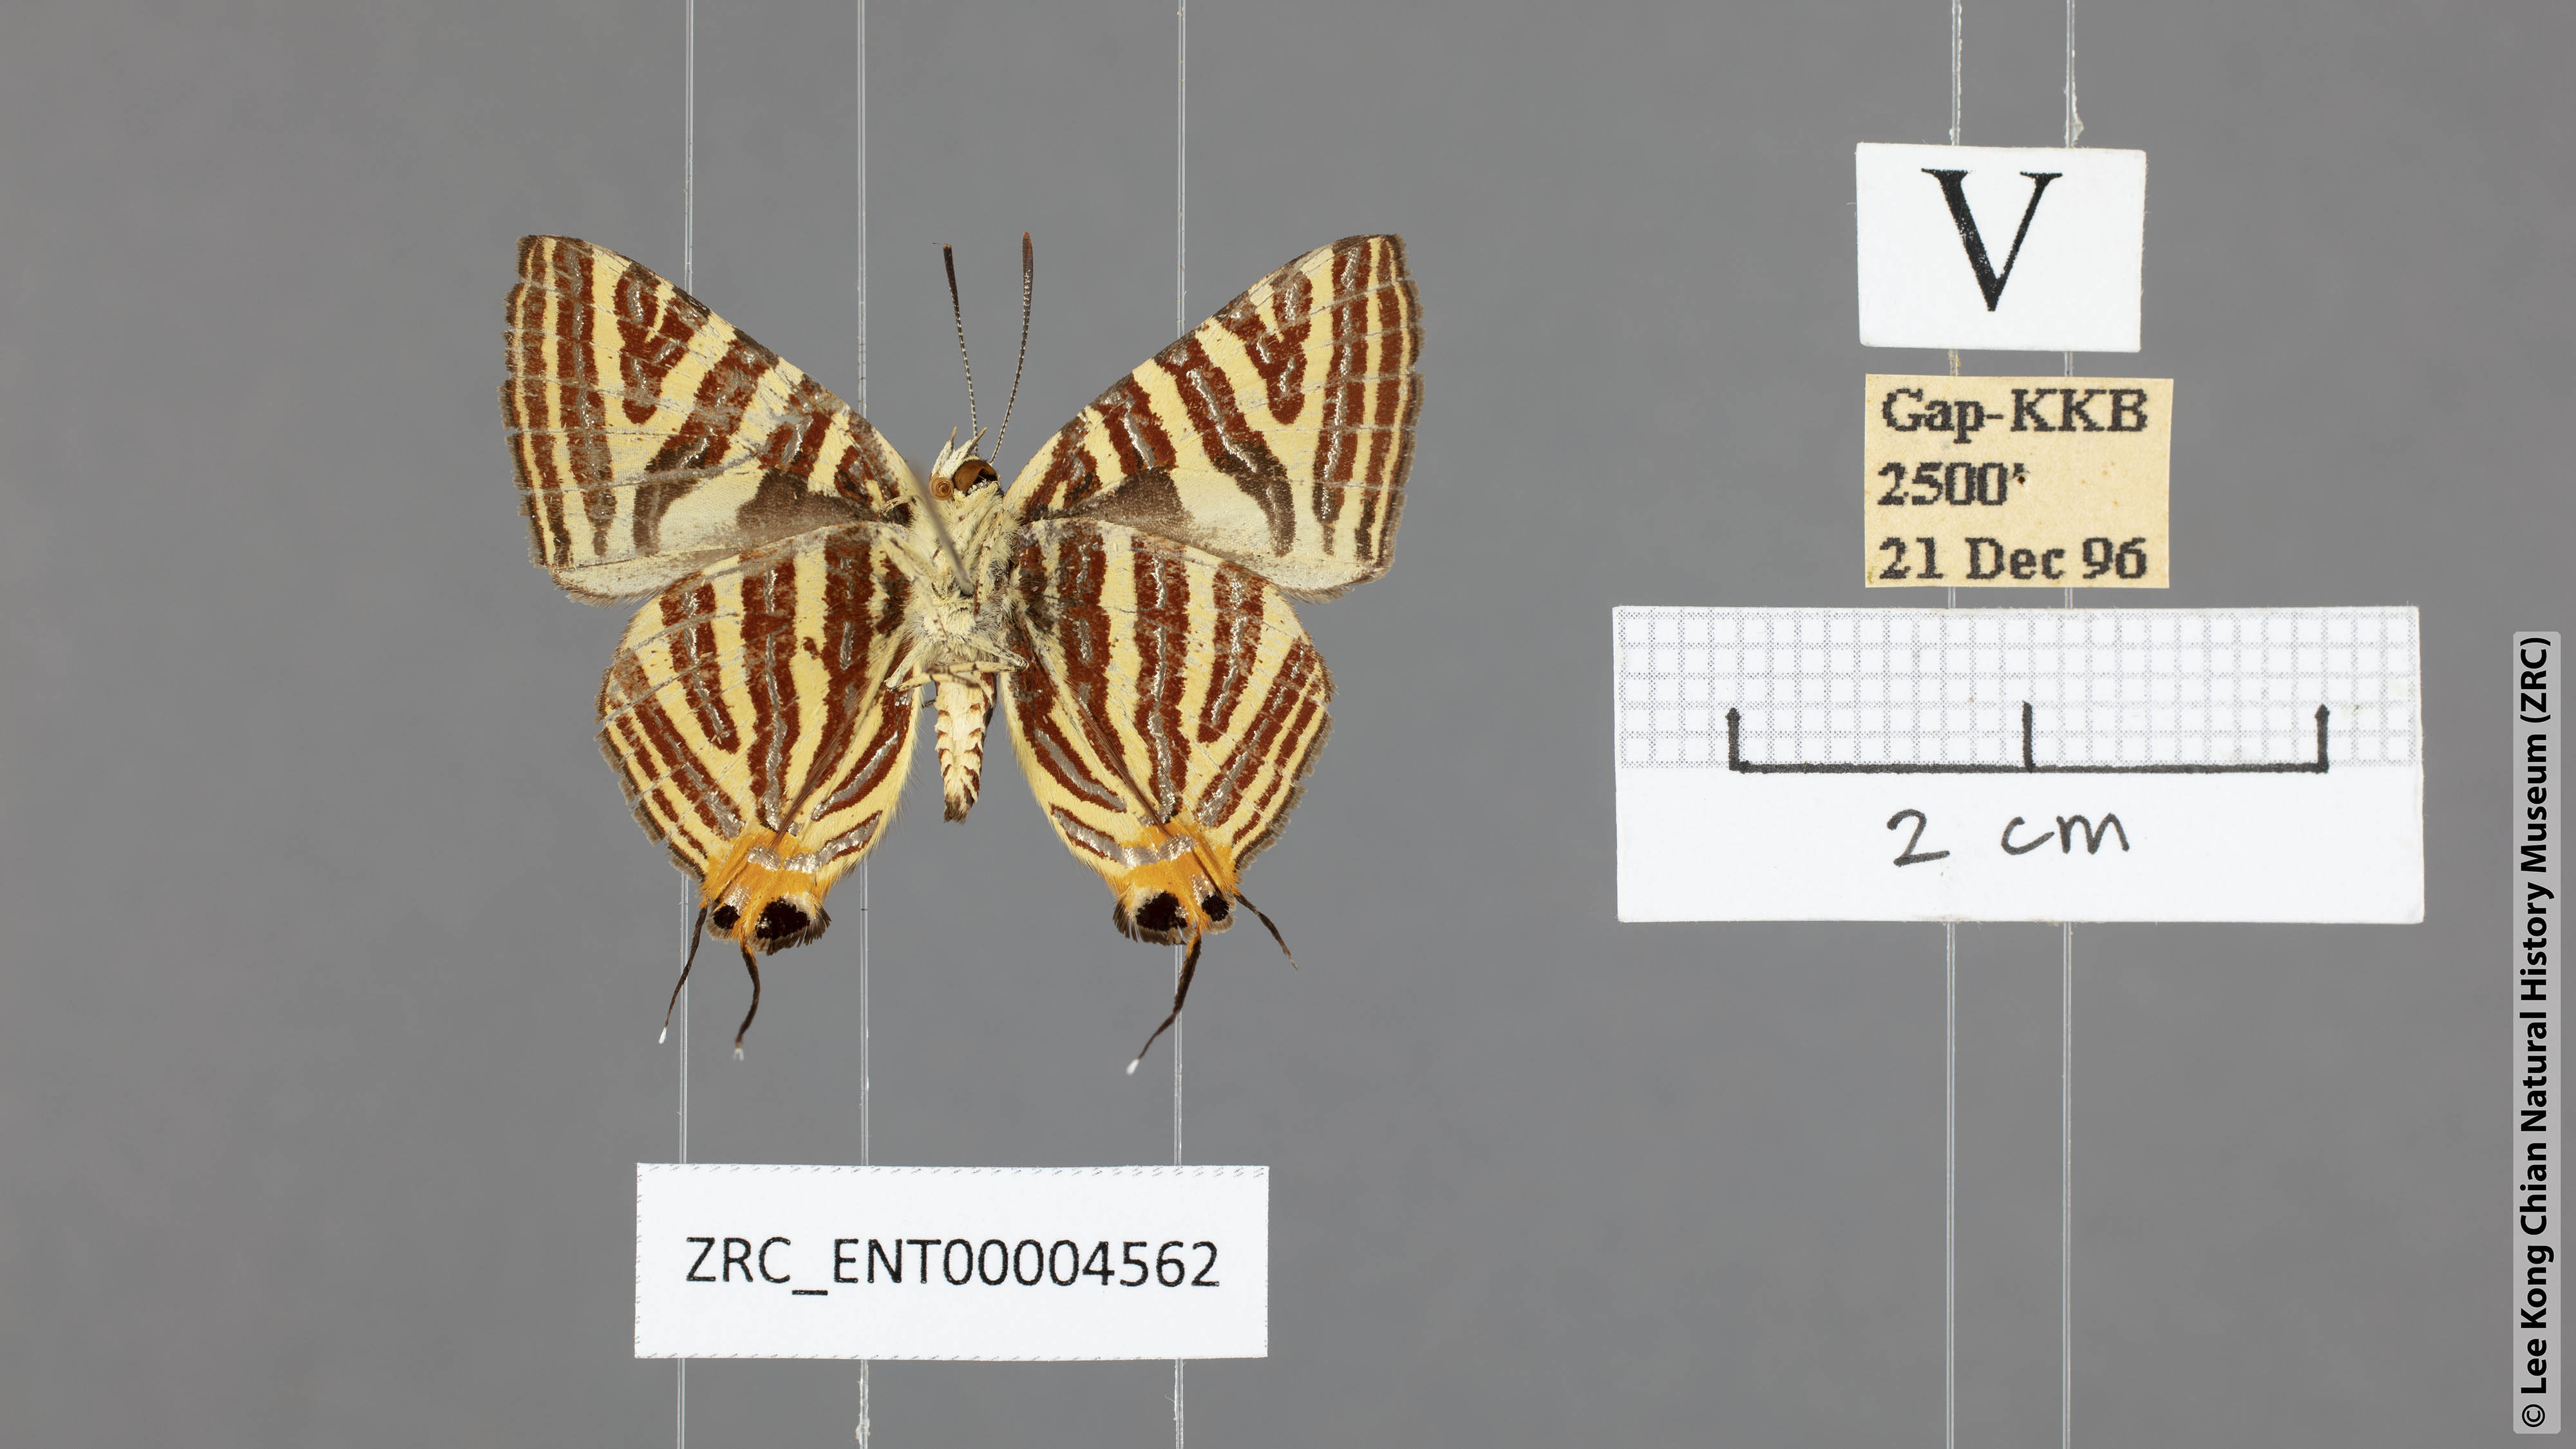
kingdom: Animalia
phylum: Arthropoda
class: Insecta
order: Lepidoptera
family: Lycaenidae
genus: Spindasis
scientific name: Spindasis seliga
